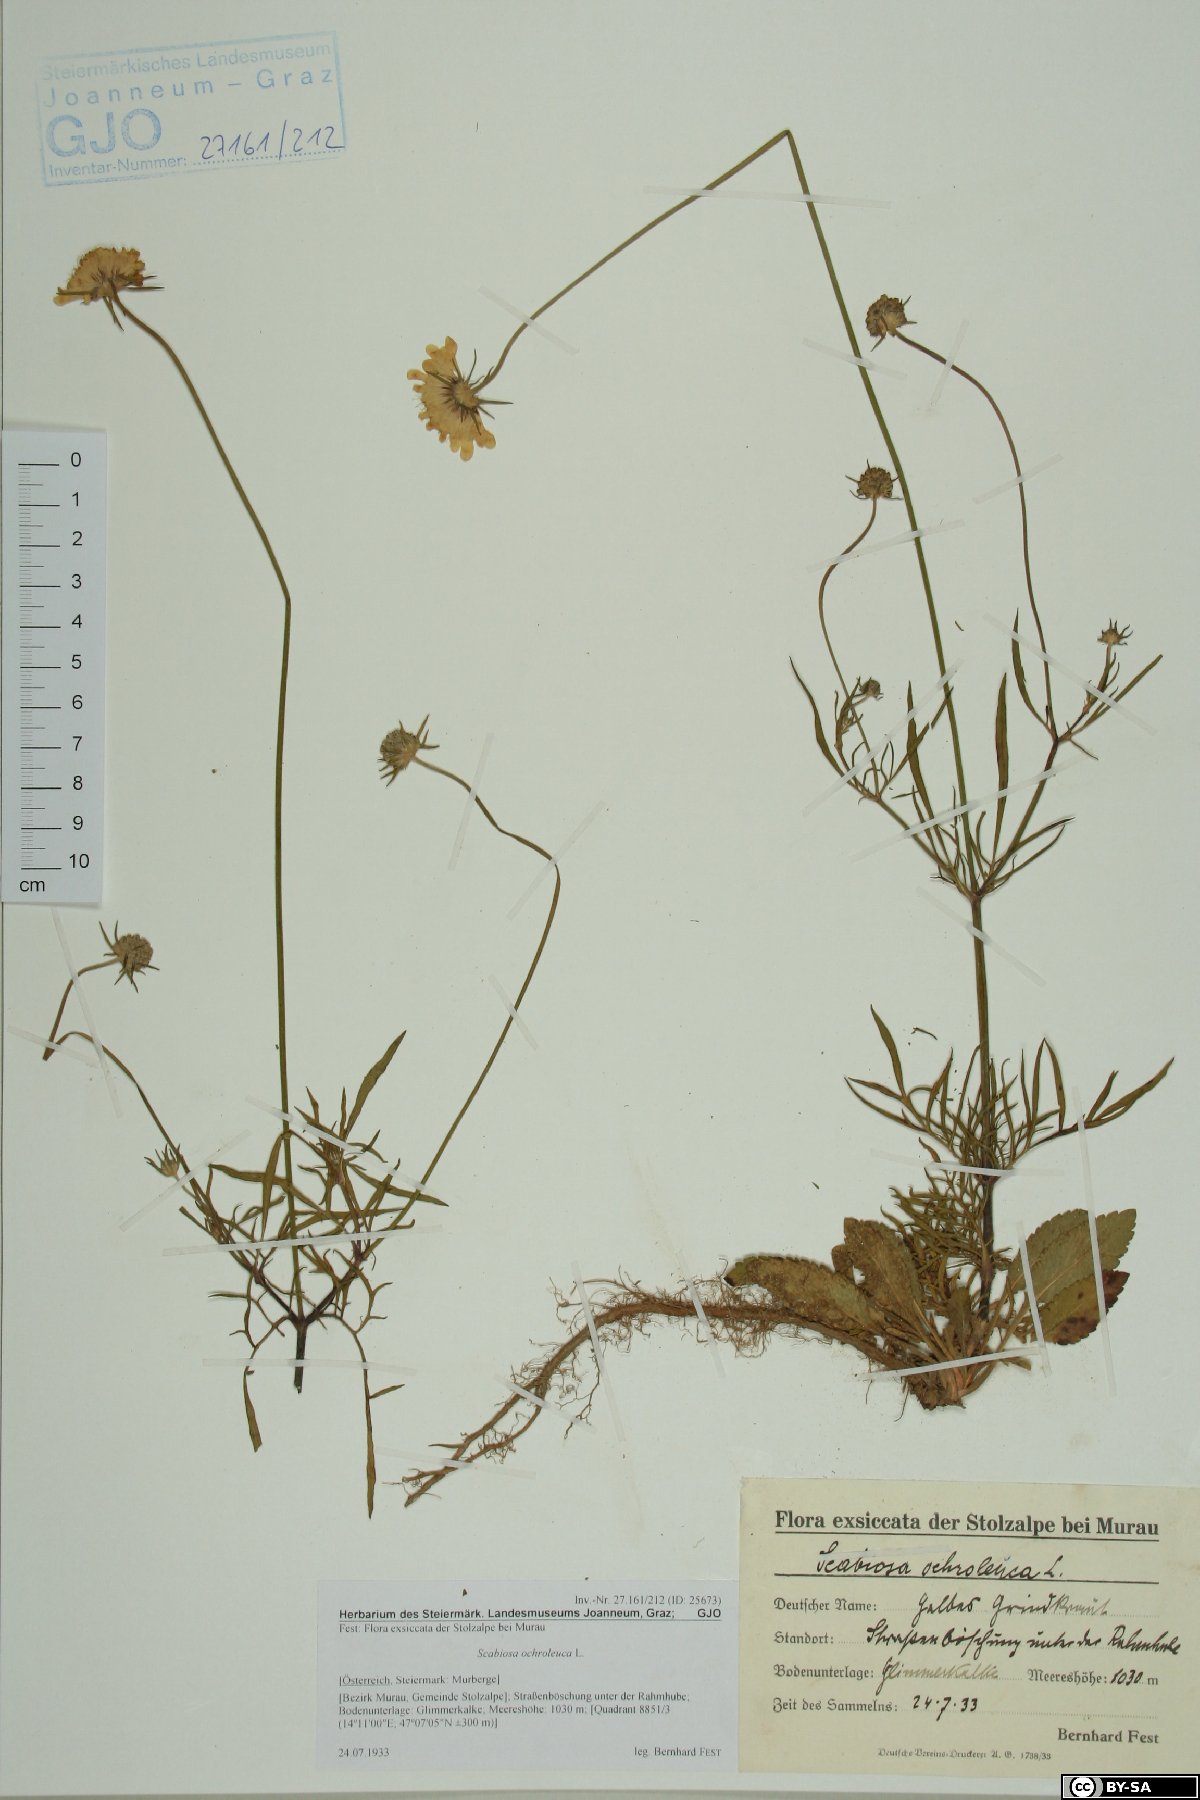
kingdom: Plantae
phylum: Tracheophyta
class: Magnoliopsida
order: Dipsacales
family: Caprifoliaceae
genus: Scabiosa
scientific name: Scabiosa ochroleuca
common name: Cream pincushions
